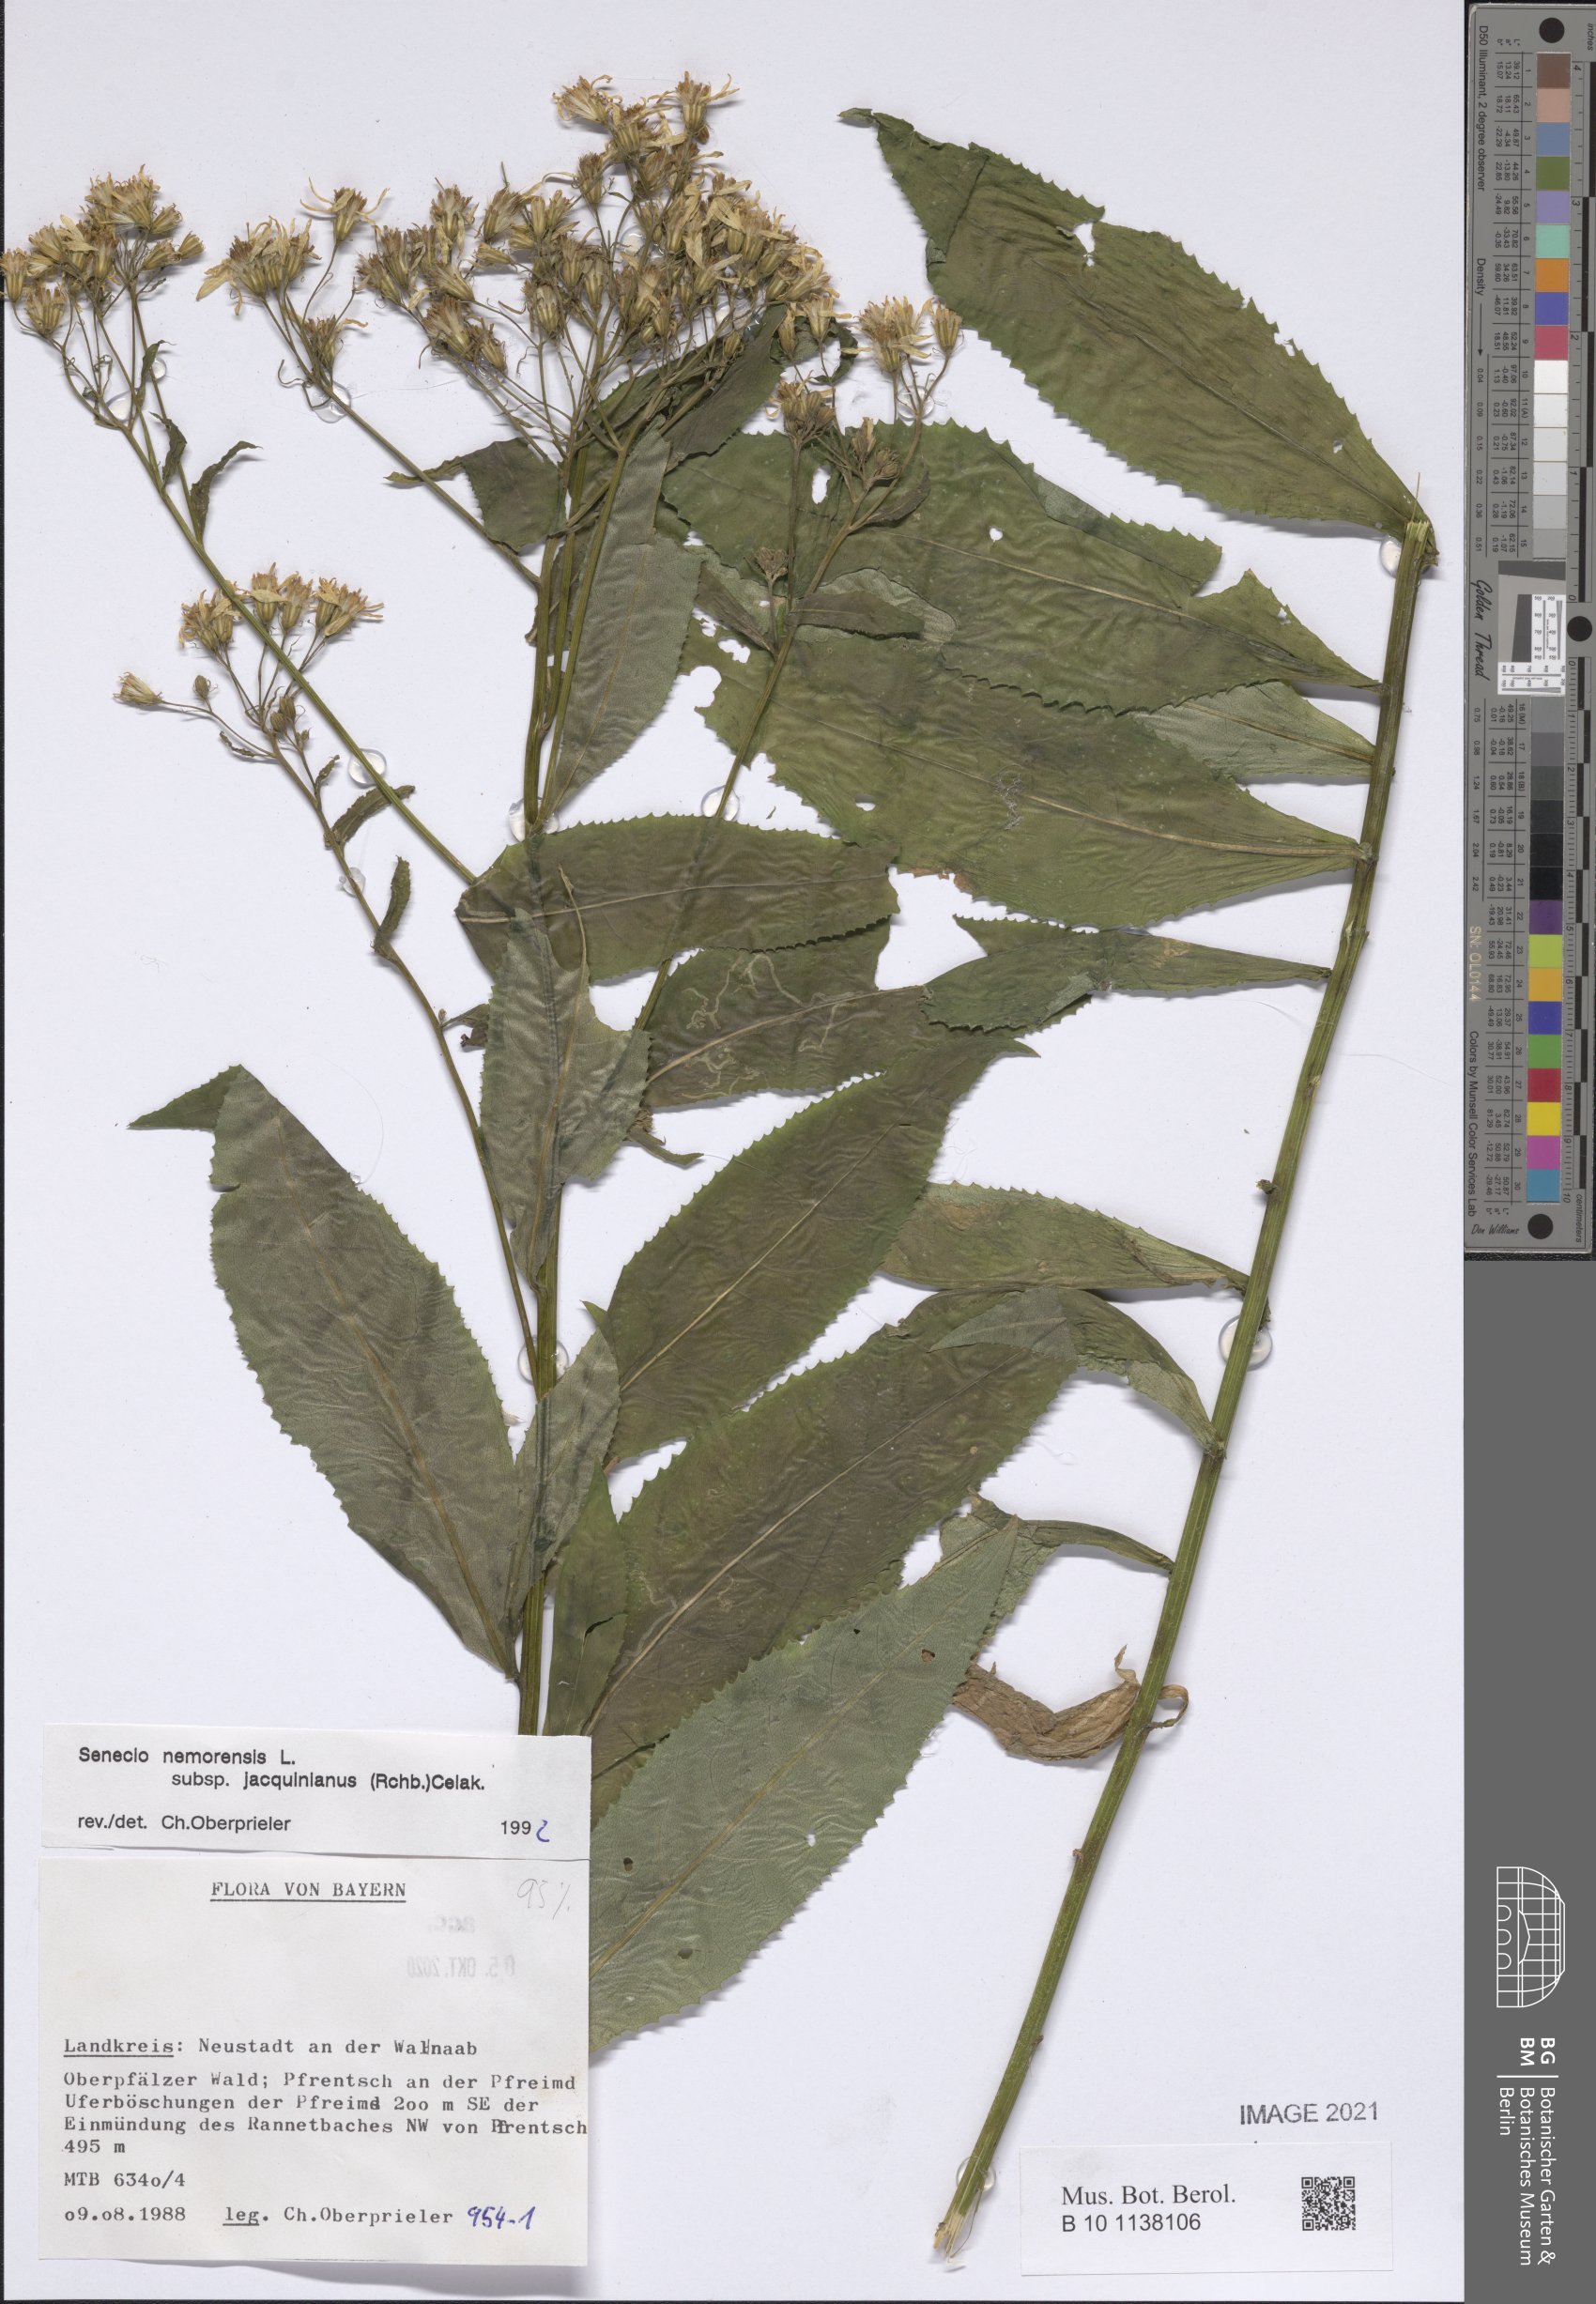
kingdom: Plantae
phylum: Tracheophyta
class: Magnoliopsida
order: Asterales
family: Asteraceae
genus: Senecio
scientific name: Senecio germanicus
